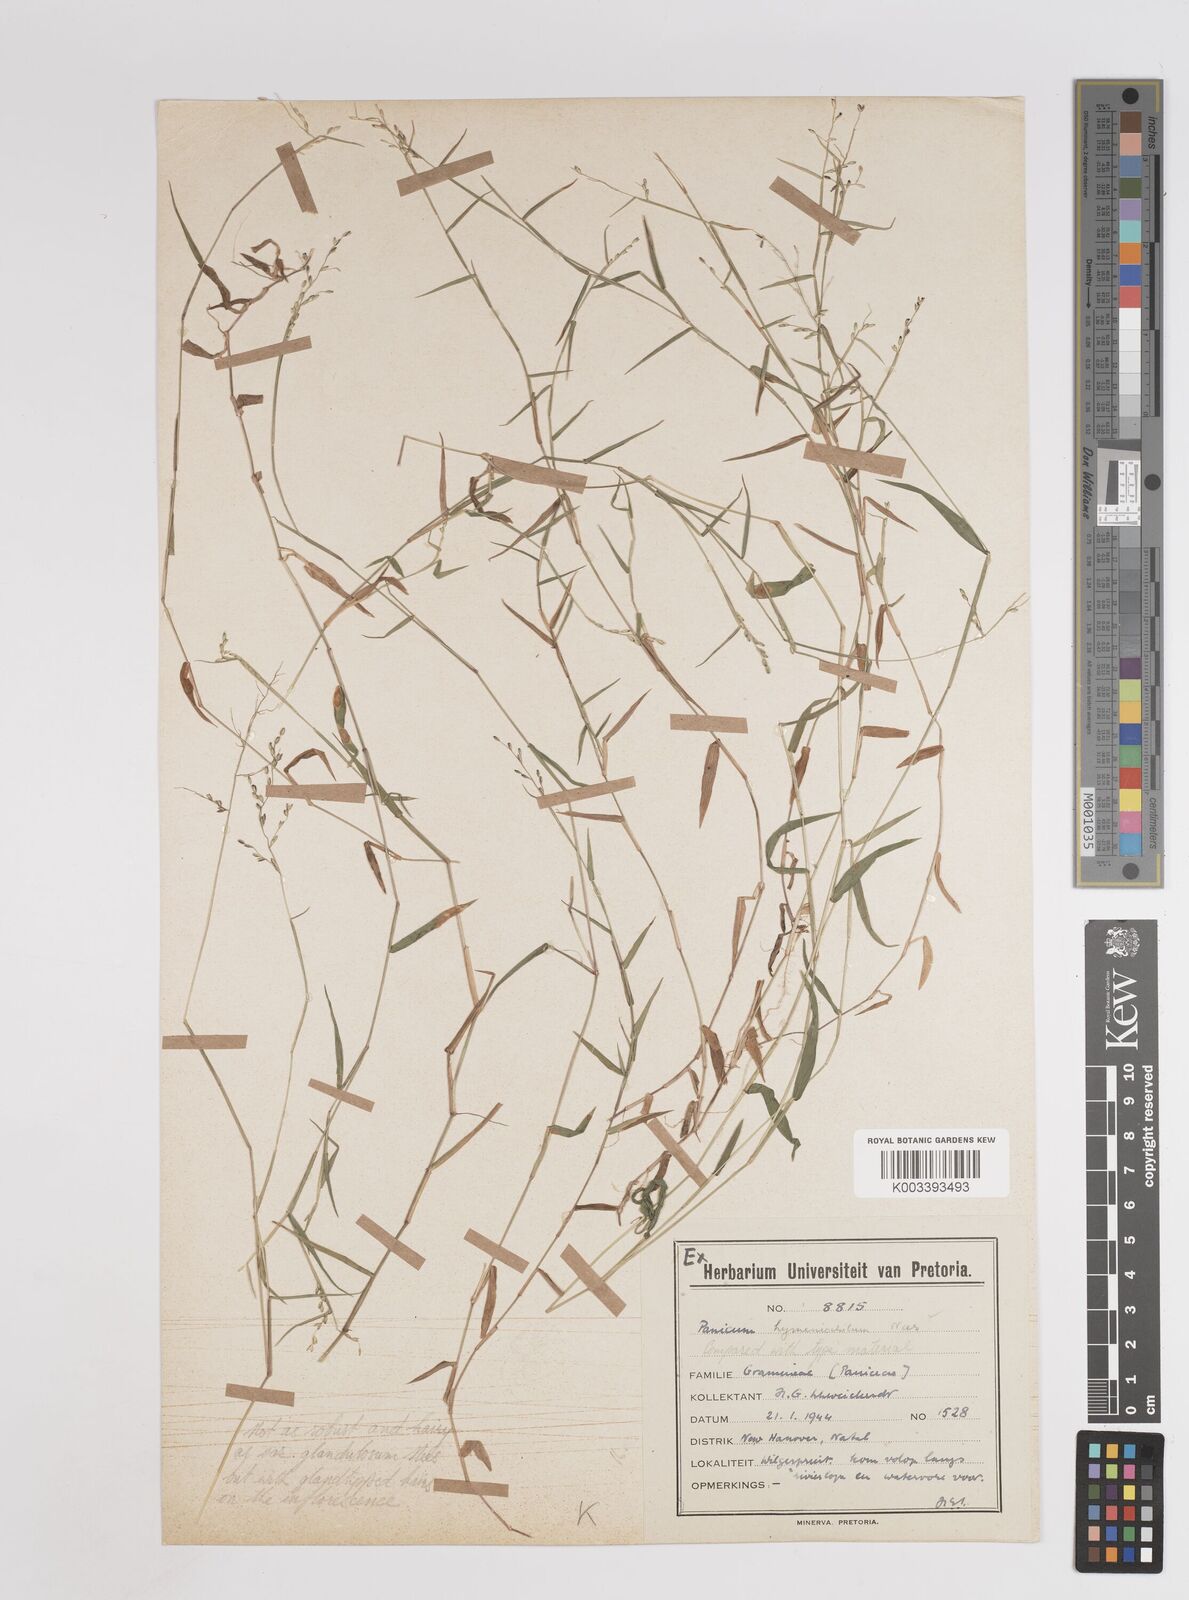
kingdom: Plantae
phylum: Tracheophyta
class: Liliopsida
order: Poales
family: Poaceae
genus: Adenochloa
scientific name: Adenochloa hymeniochila
